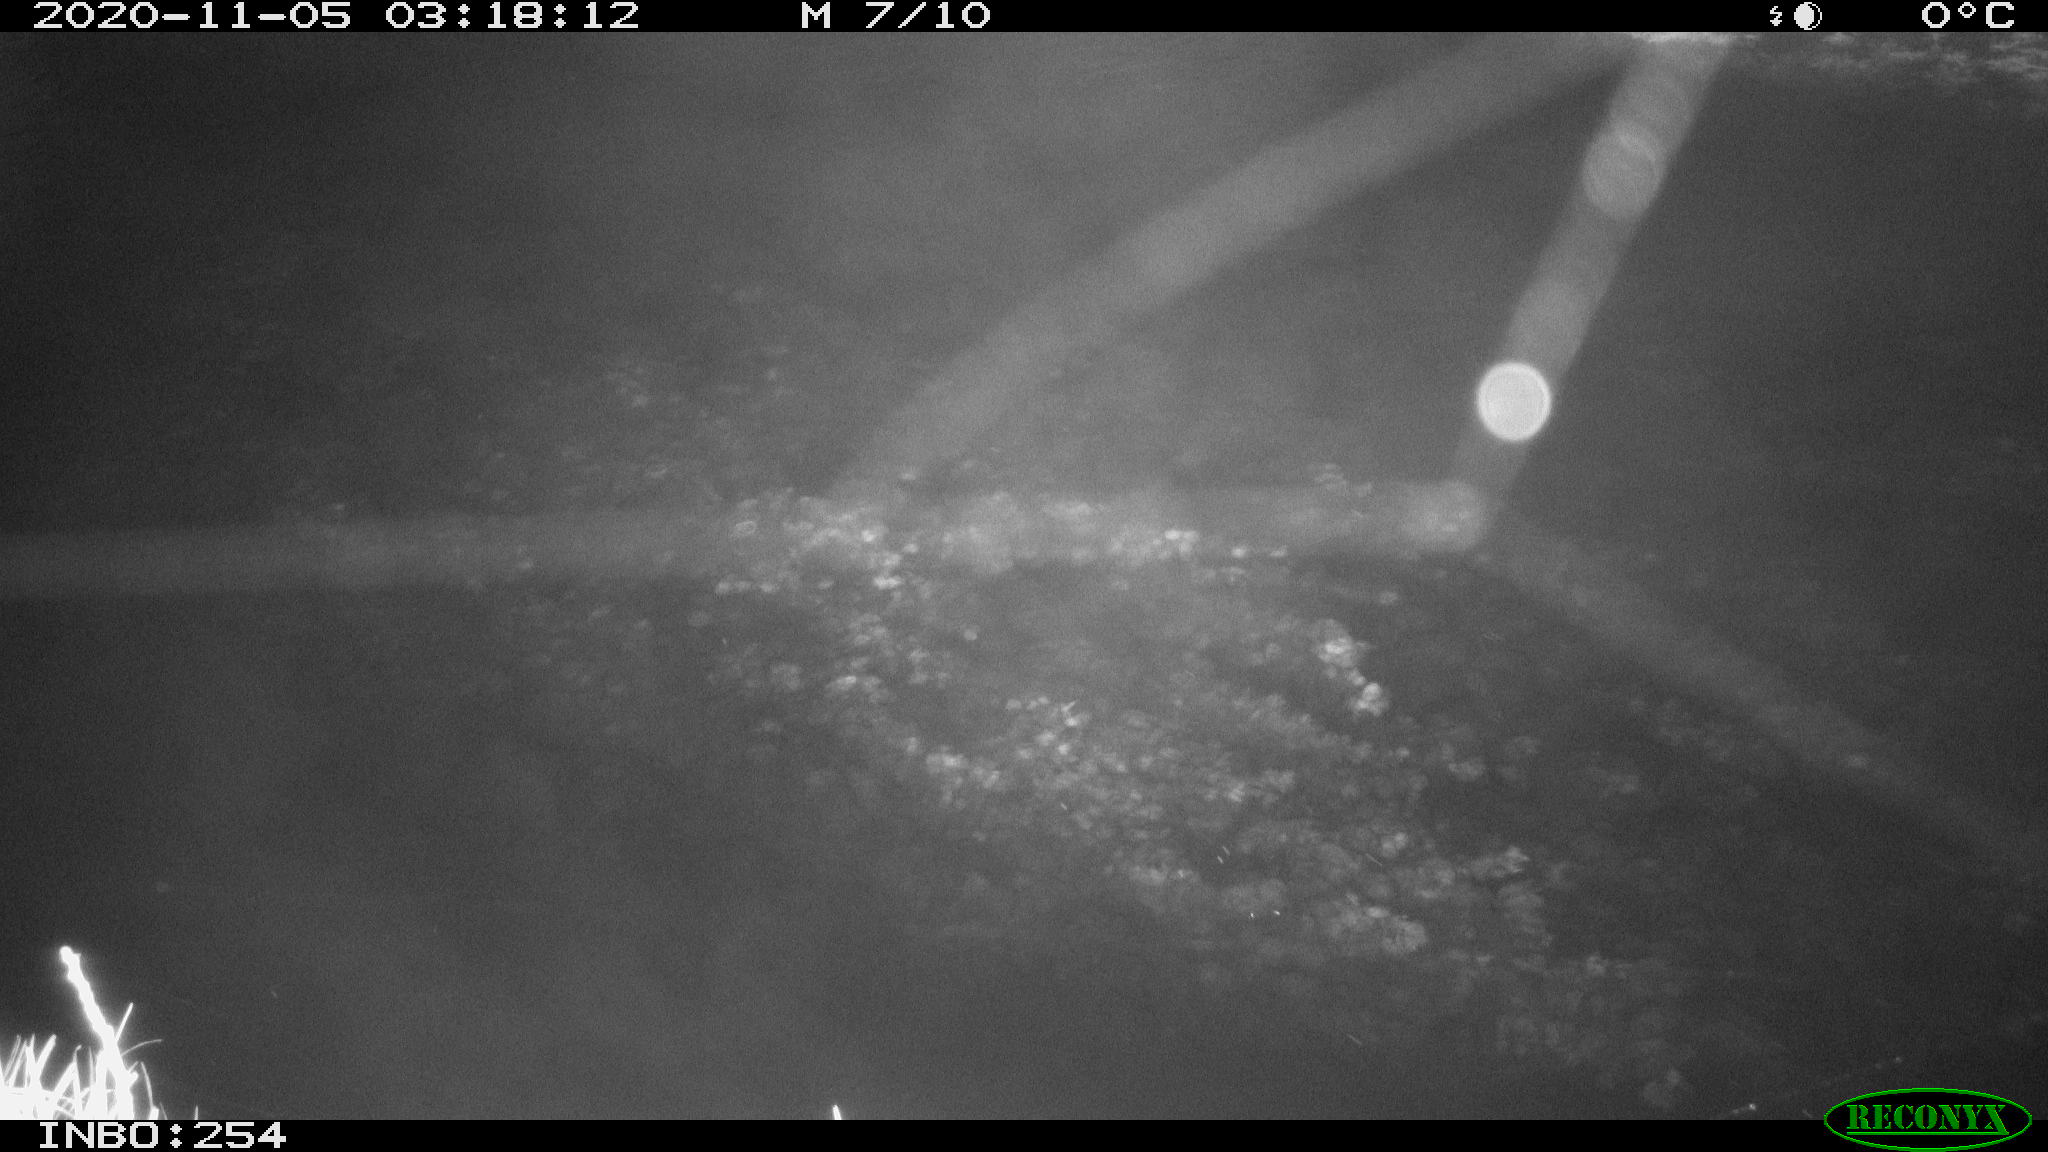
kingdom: Animalia
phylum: Chordata
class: Aves
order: Anseriformes
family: Anatidae
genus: Anas
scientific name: Anas platyrhynchos
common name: Mallard
